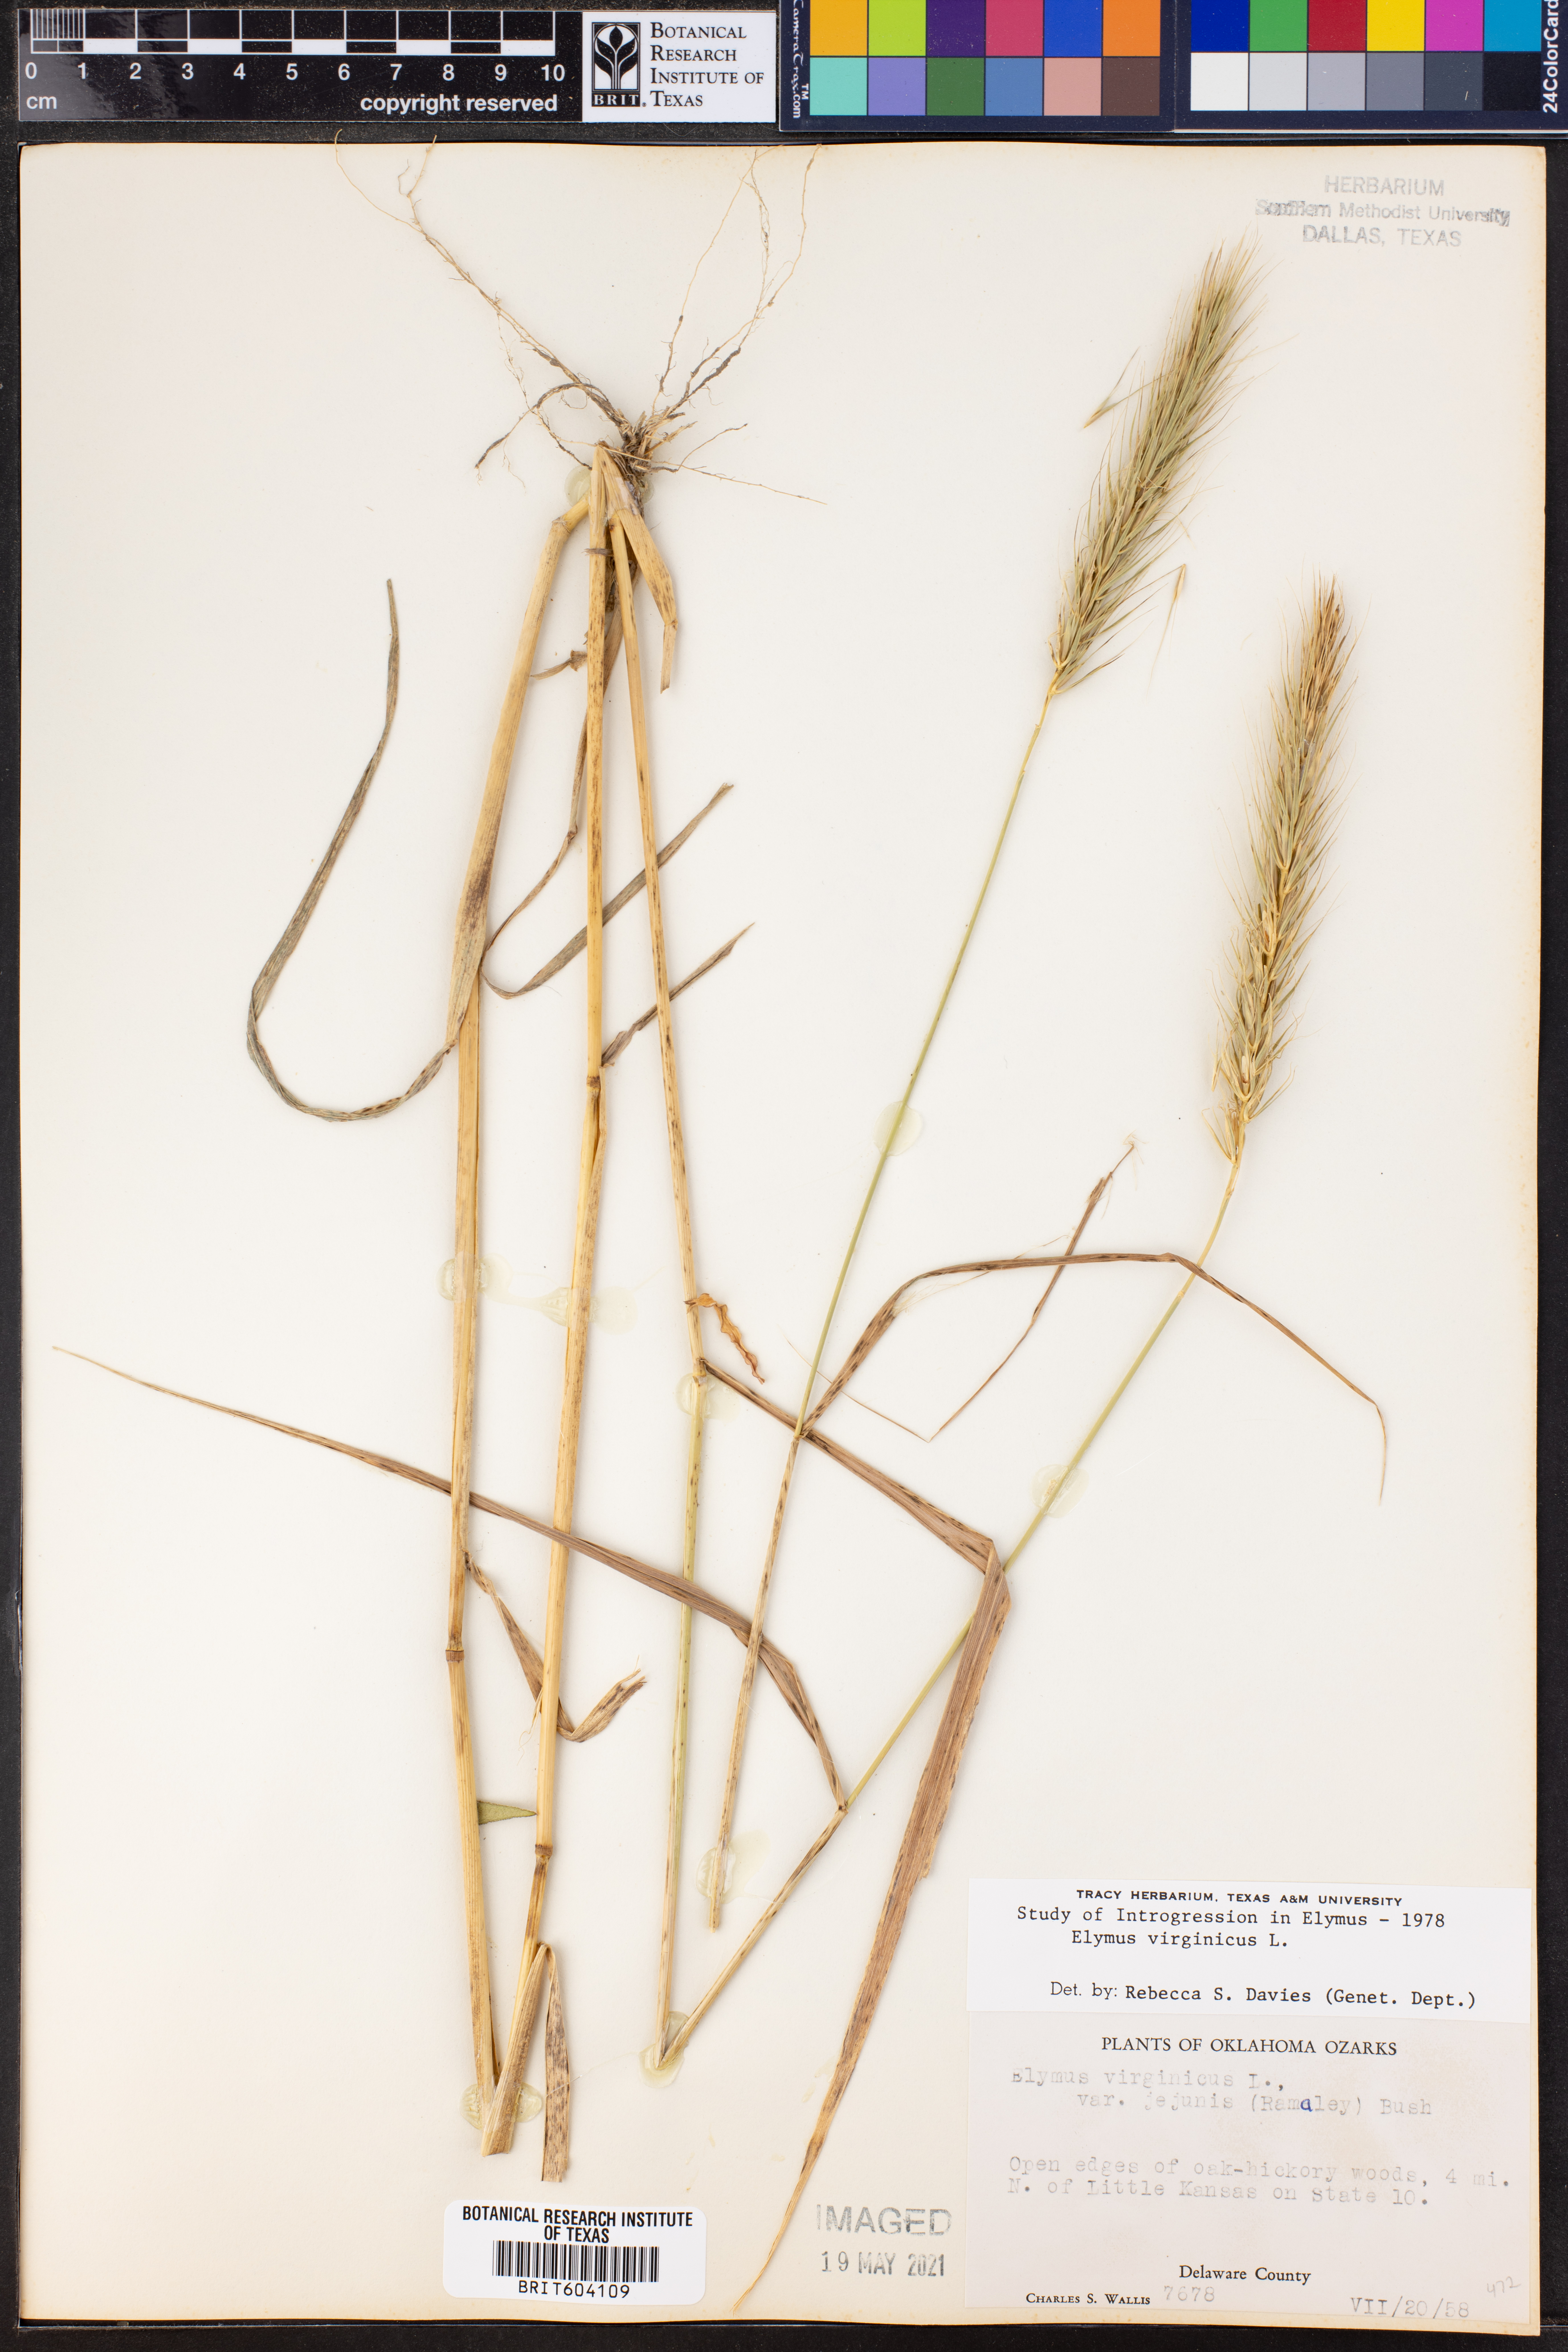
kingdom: Plantae
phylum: Tracheophyta
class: Liliopsida
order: Poales
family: Poaceae
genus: Elymus
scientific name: Elymus virginicus
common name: Common eastern wildrye
